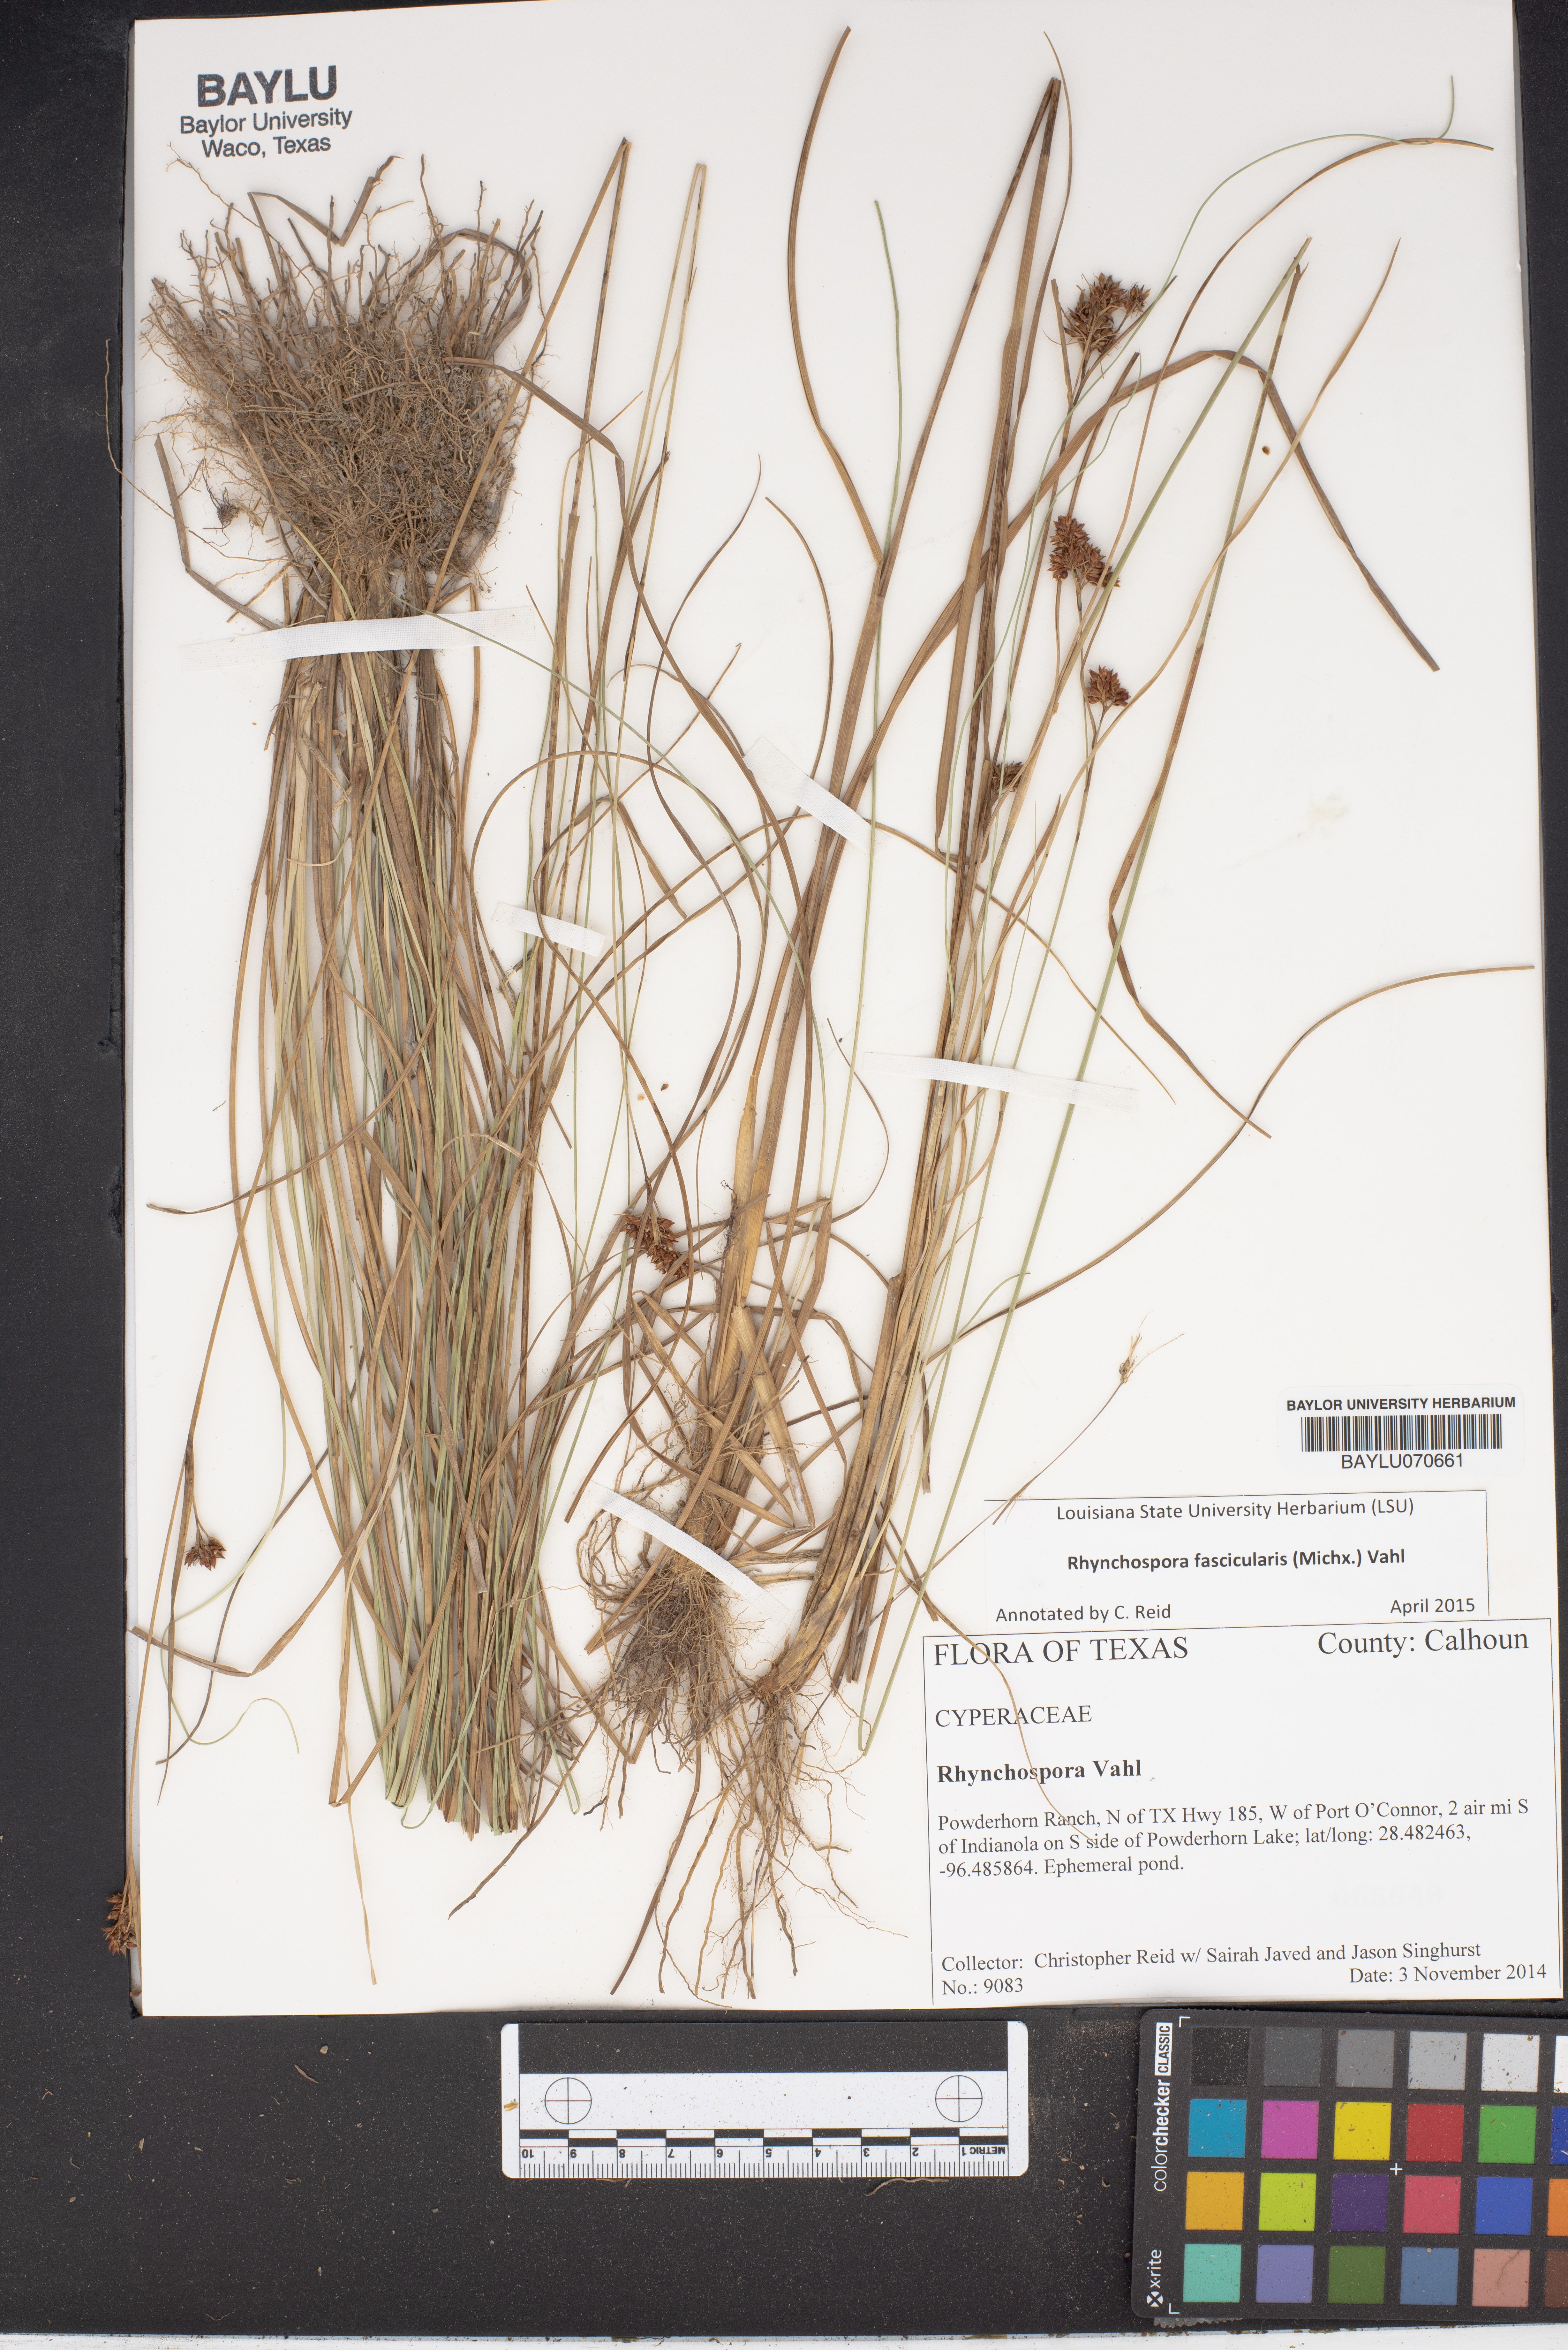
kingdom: Plantae
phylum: Tracheophyta
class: Liliopsida
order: Poales
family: Cyperaceae
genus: Rhynchospora
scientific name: Rhynchospora fascicularis
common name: Fascicled beak sedge
